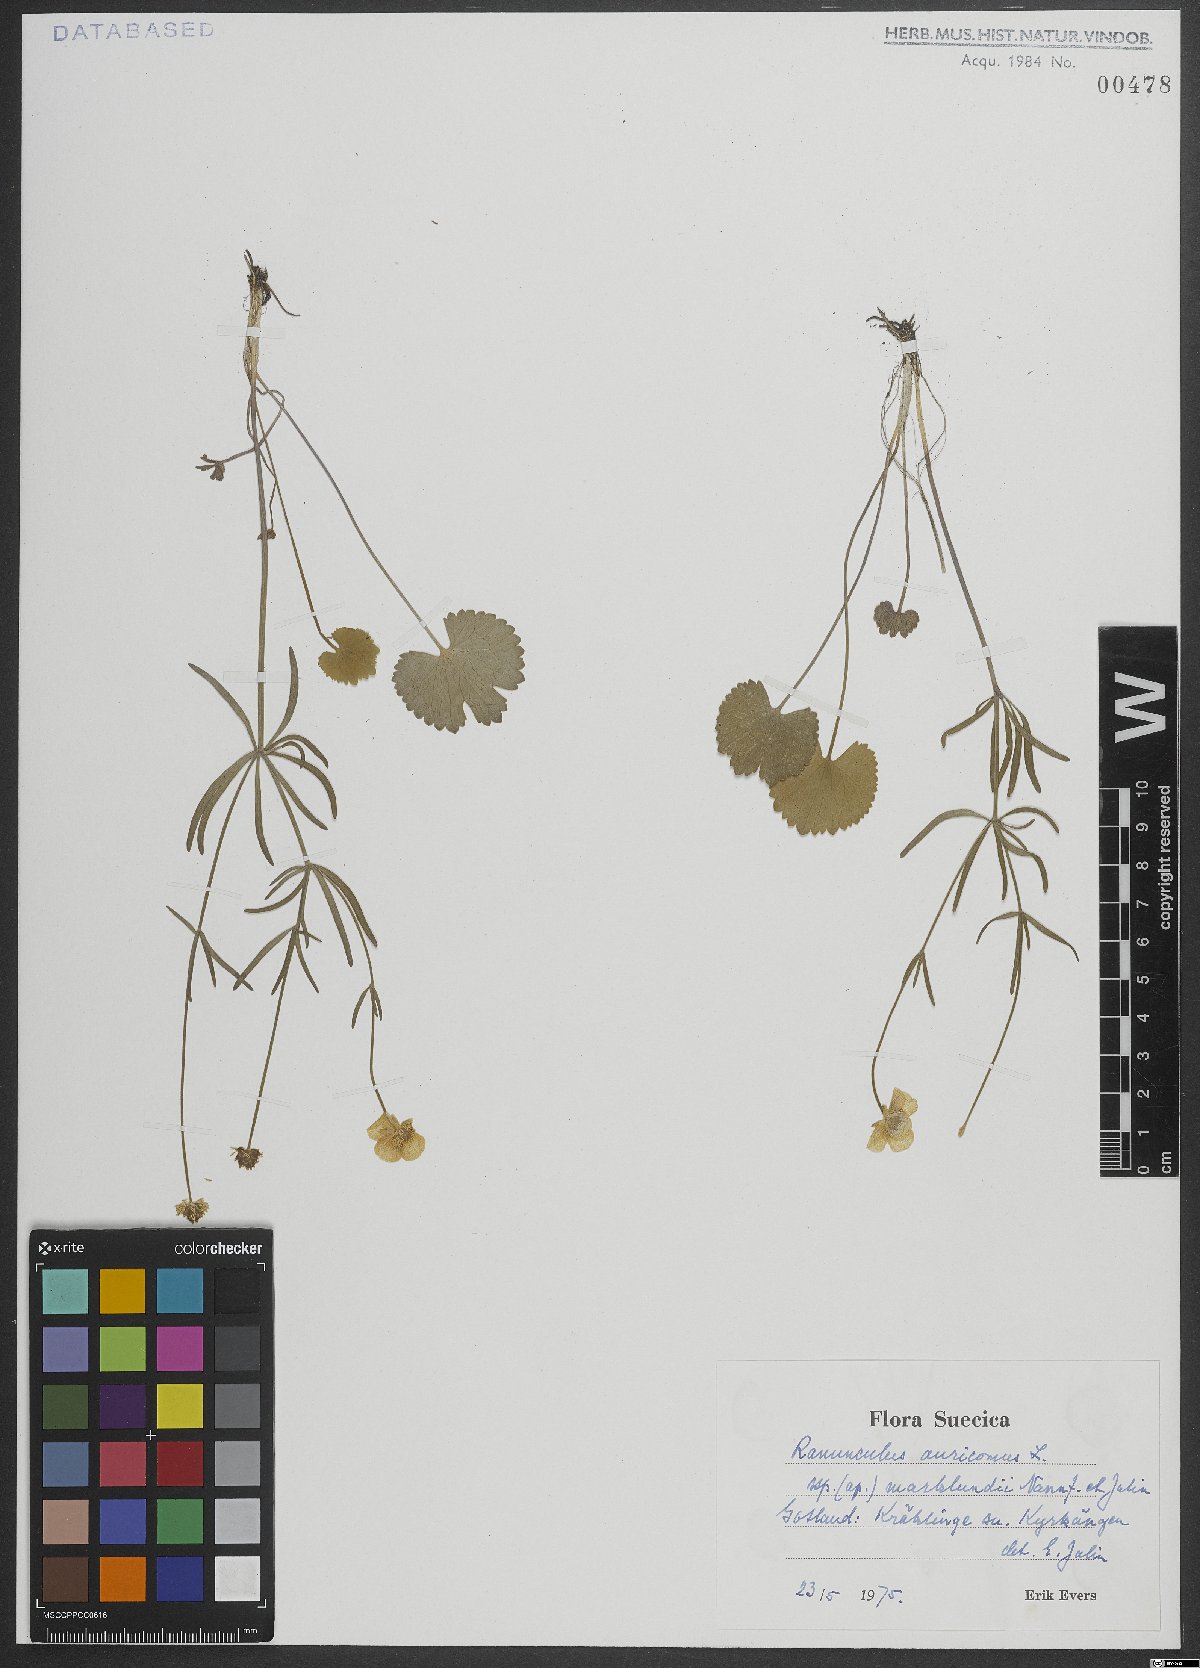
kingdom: Plantae
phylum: Tracheophyta
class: Magnoliopsida
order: Ranunculales
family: Ranunculaceae
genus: Ranunculus
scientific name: Ranunculus auricomus
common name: Goldilocks buttercup
